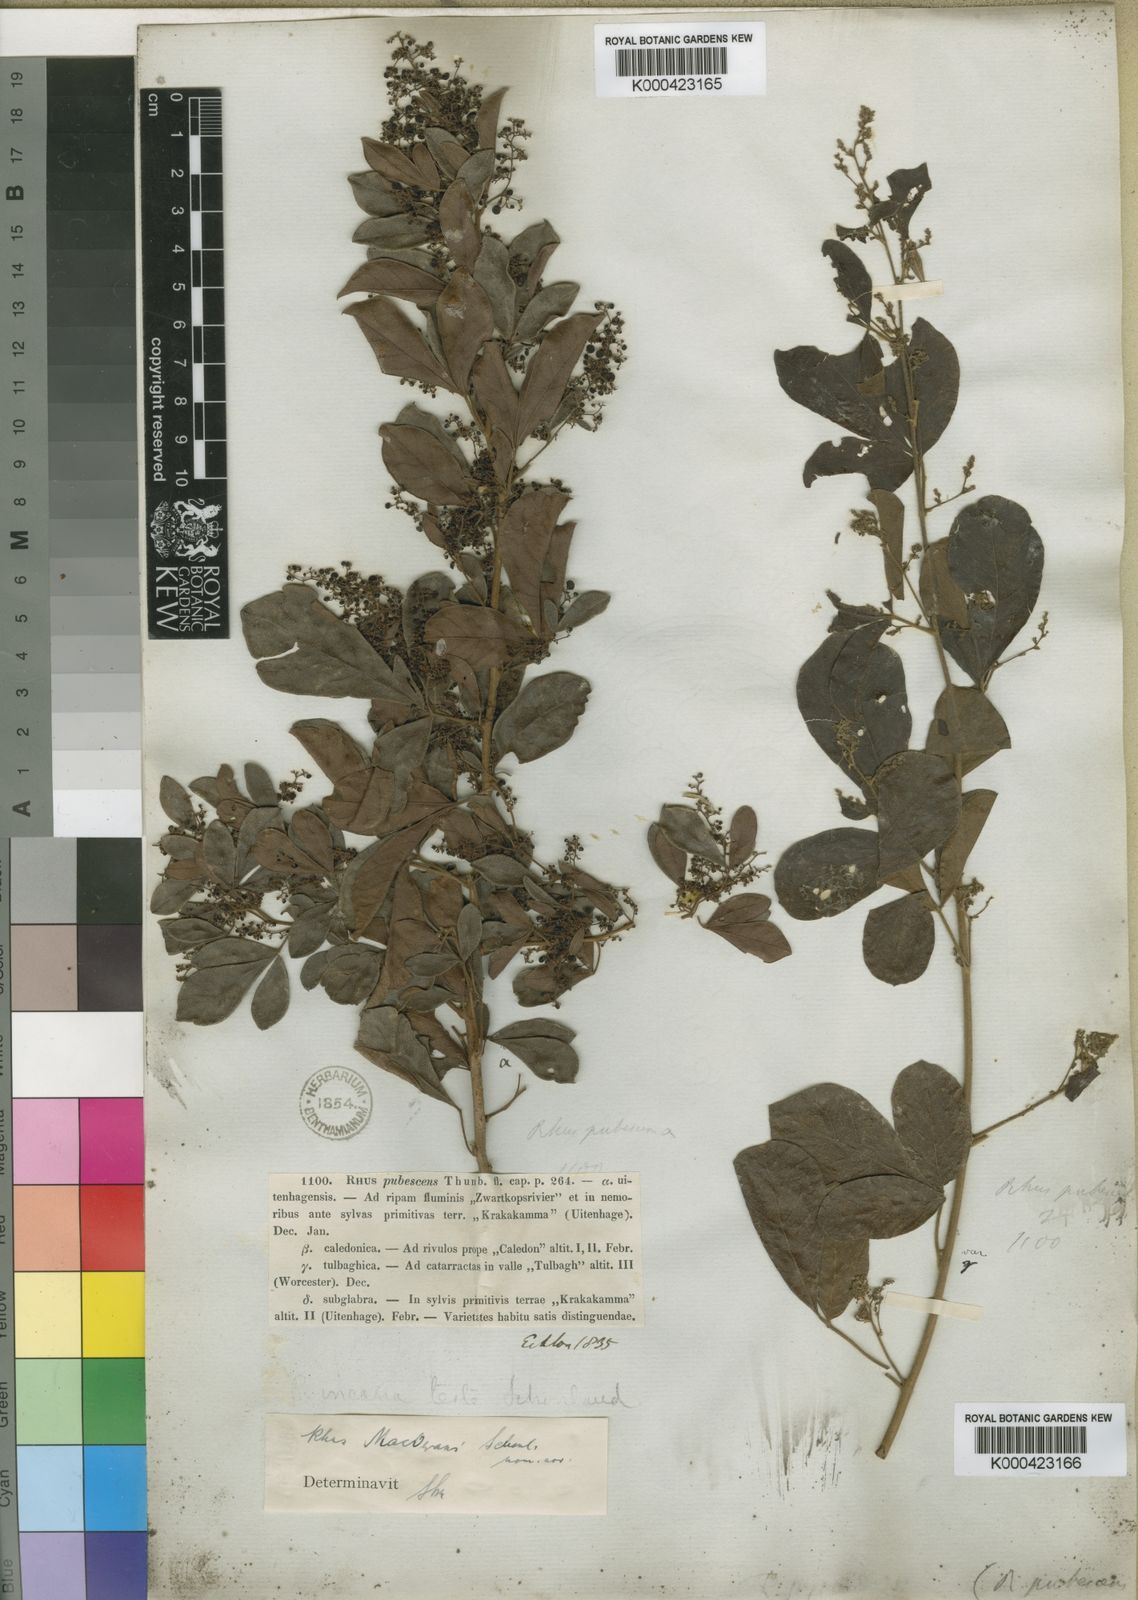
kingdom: Plantae
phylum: Tracheophyta
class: Magnoliopsida
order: Sapindales
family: Anacardiaceae
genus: Rhus
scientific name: Rhus
